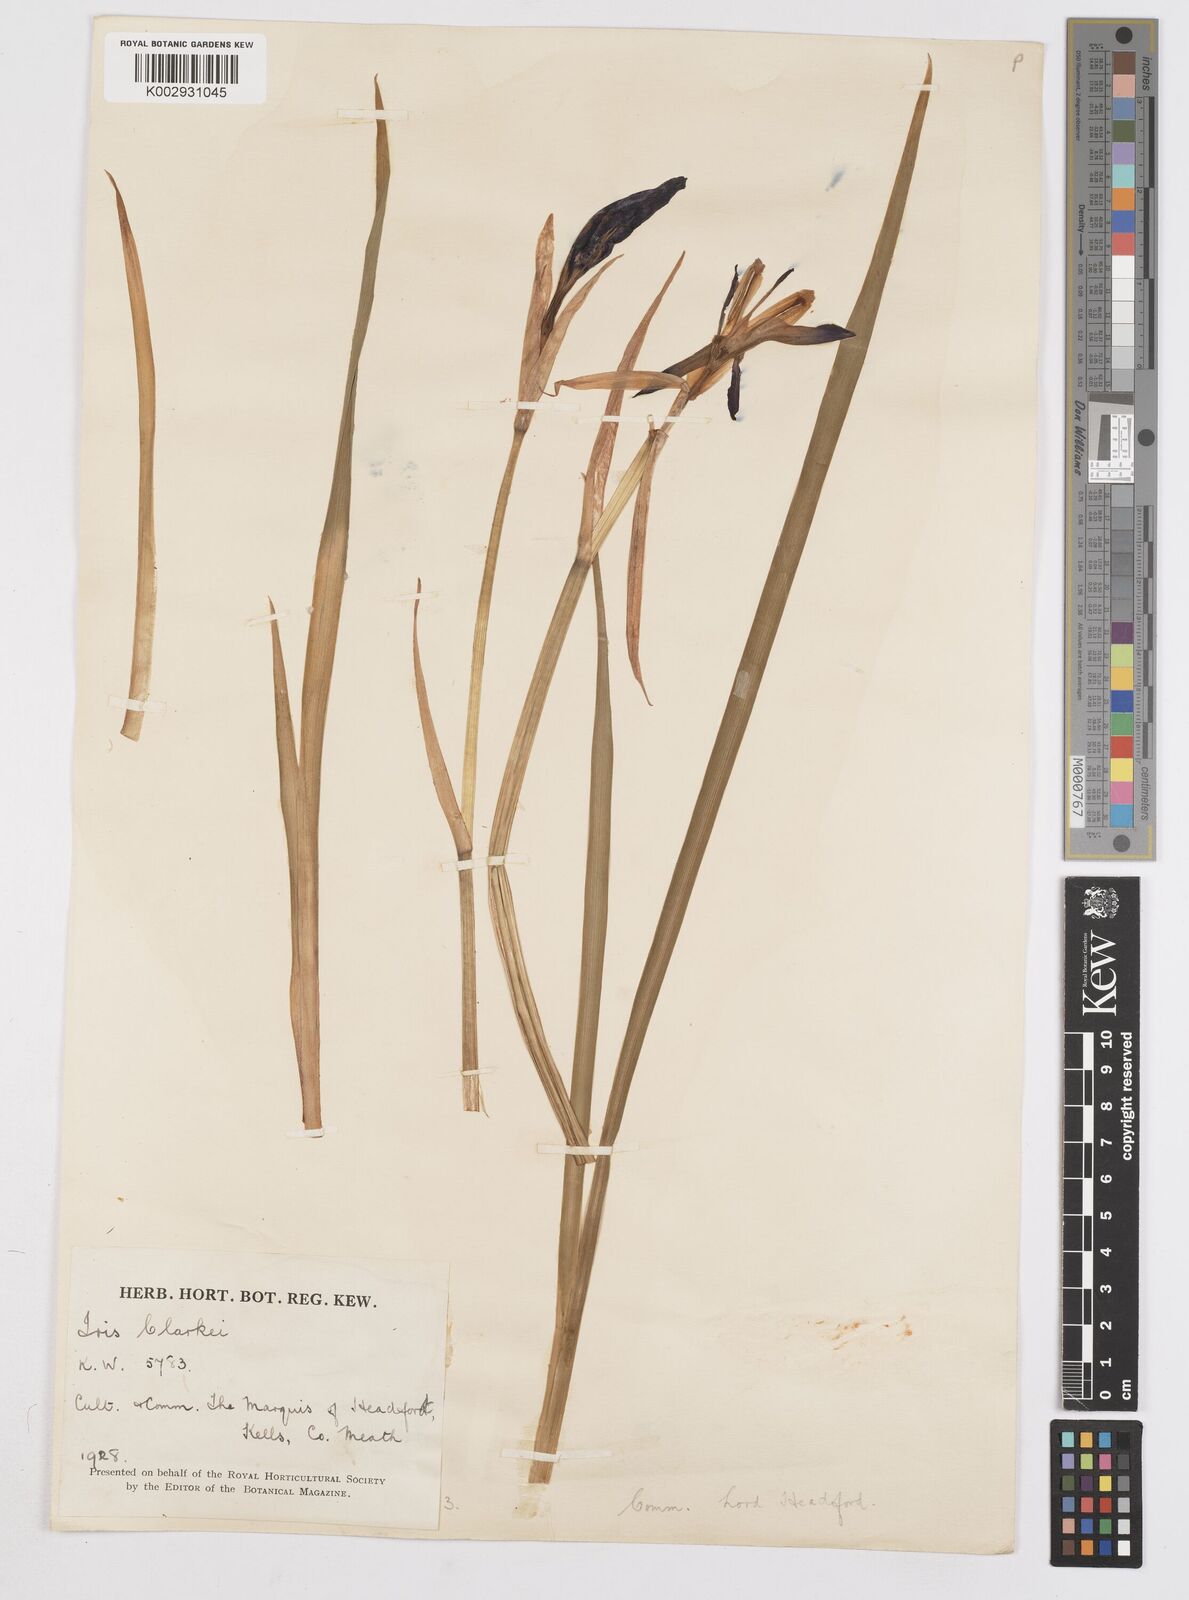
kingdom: Plantae
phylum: Tracheophyta
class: Liliopsida
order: Asparagales
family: Iridaceae
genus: Iris
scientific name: Iris clarkei
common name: Tibet iris
